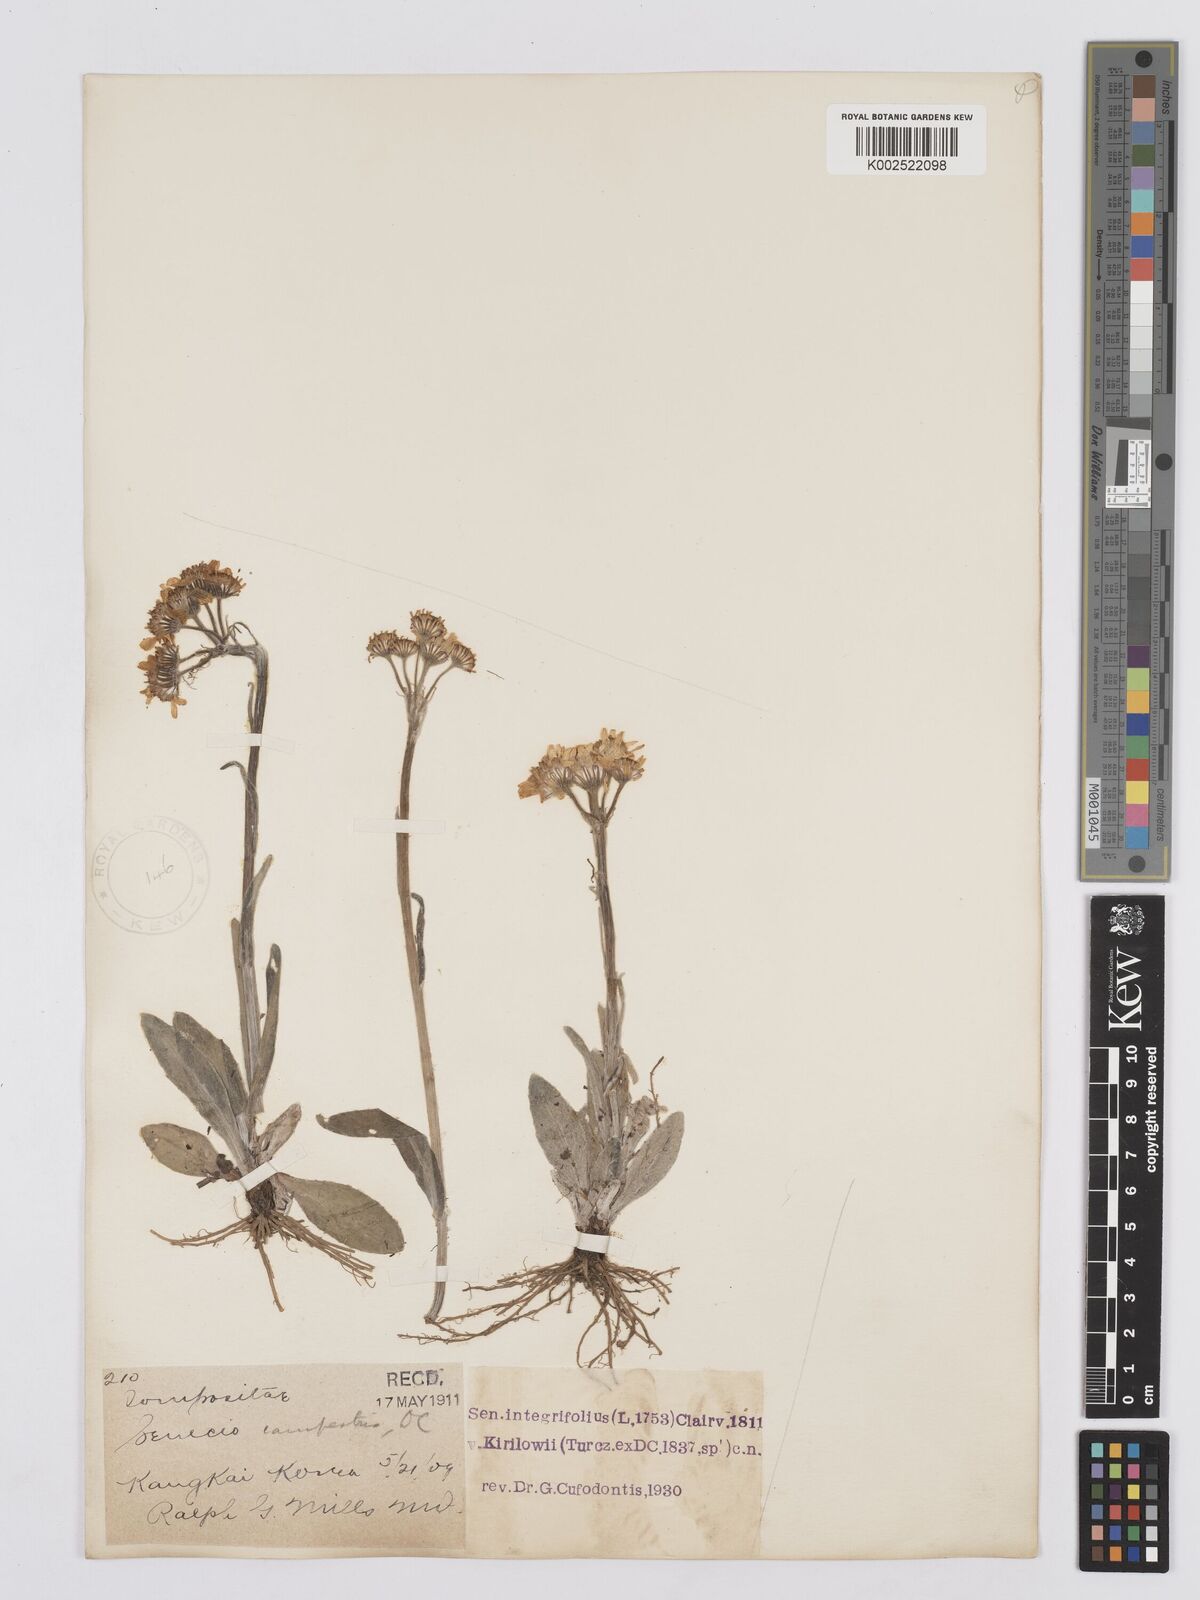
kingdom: Plantae
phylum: Tracheophyta
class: Magnoliopsida
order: Asterales
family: Asteraceae
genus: Tephroseris
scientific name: Tephroseris kirilowii
